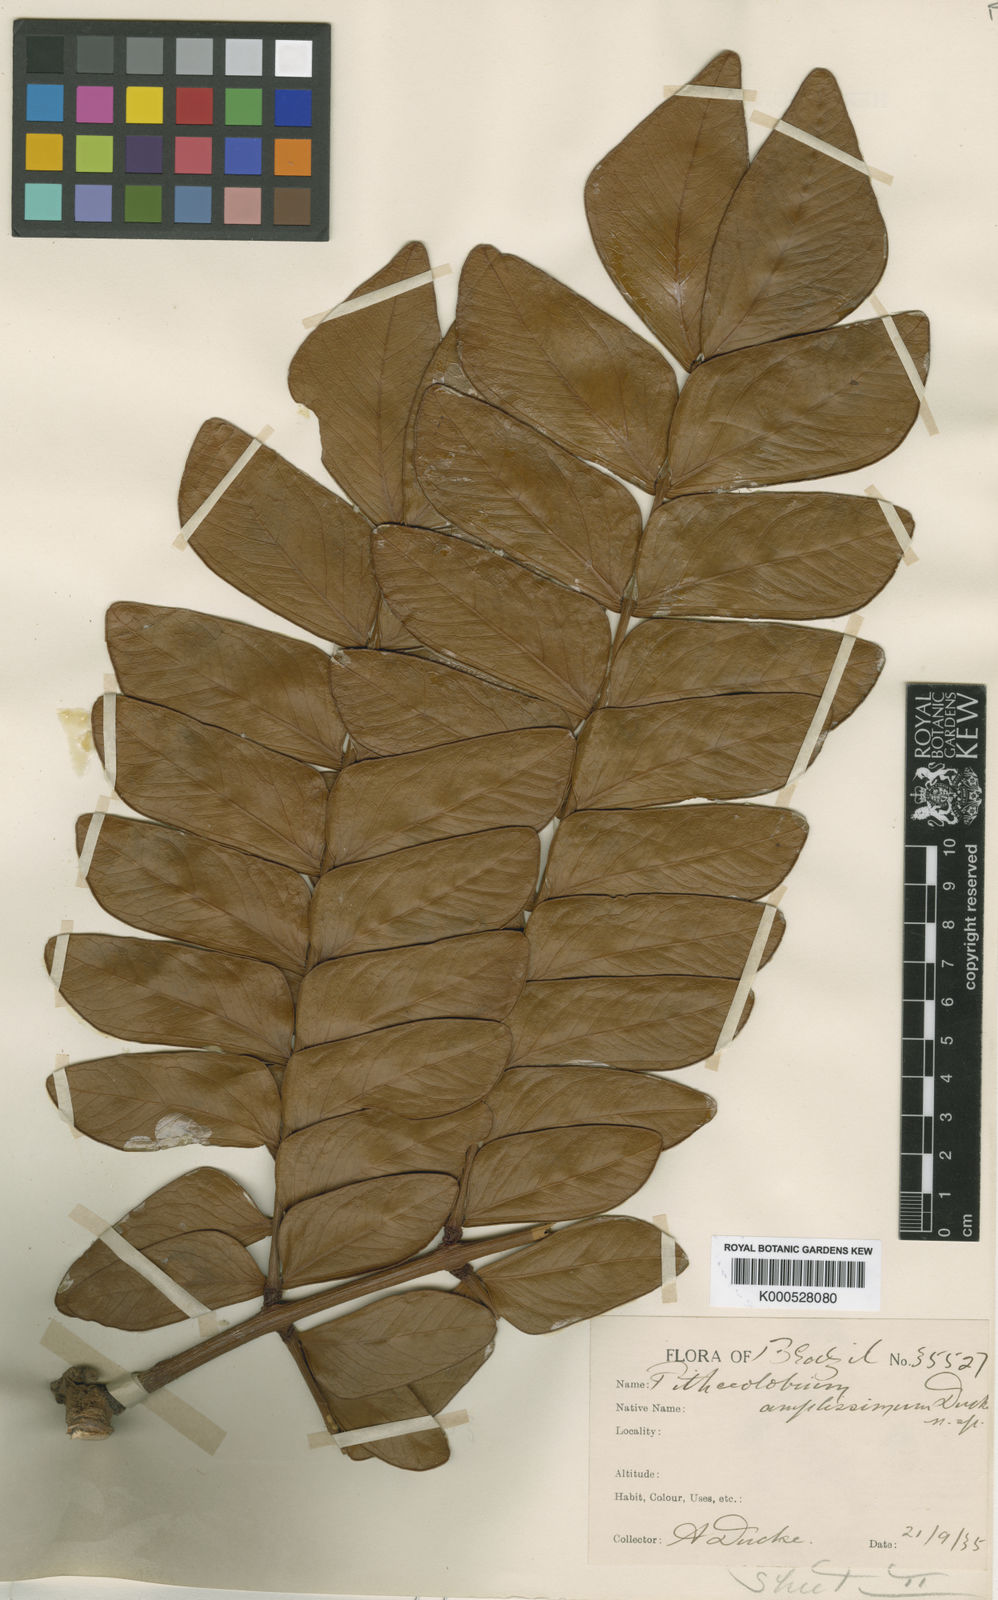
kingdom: Plantae
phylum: Tracheophyta
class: Magnoliopsida
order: Fabales
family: Fabaceae
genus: Macrosamanea
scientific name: Macrosamanea amplissima
